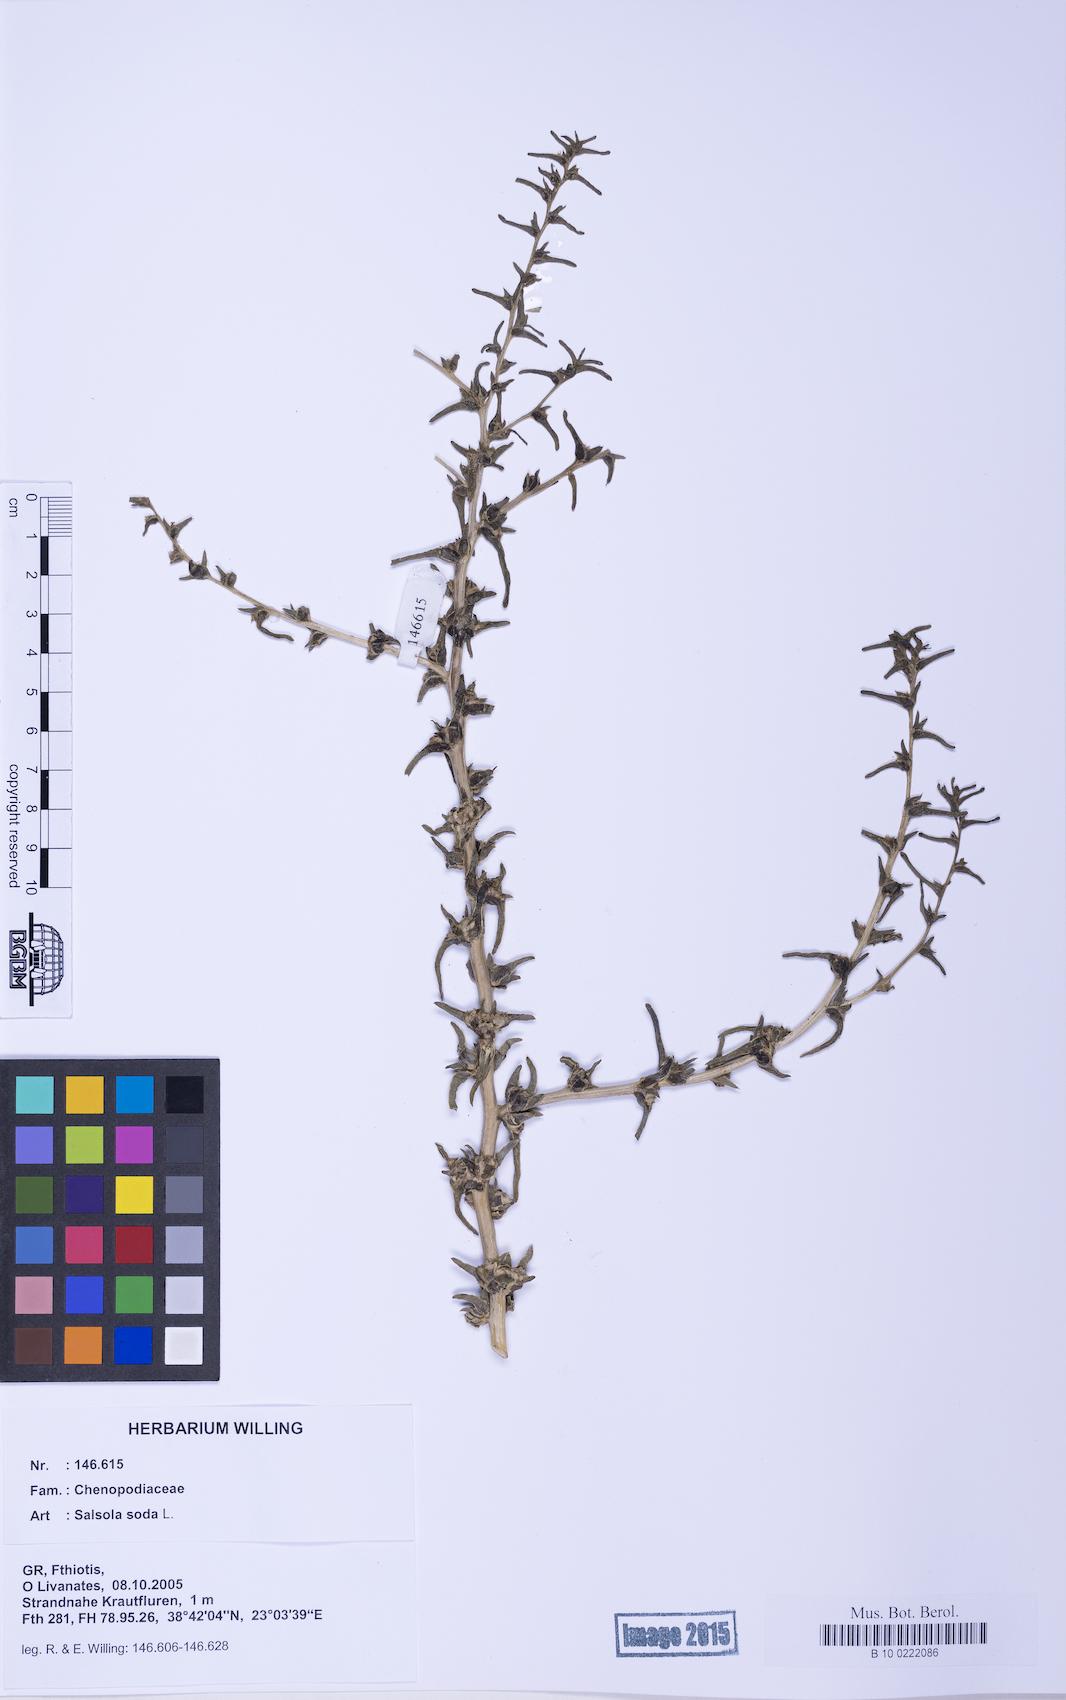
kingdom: Plantae
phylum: Tracheophyta
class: Magnoliopsida
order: Caryophyllales
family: Amaranthaceae
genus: Soda
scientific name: Soda inermis
